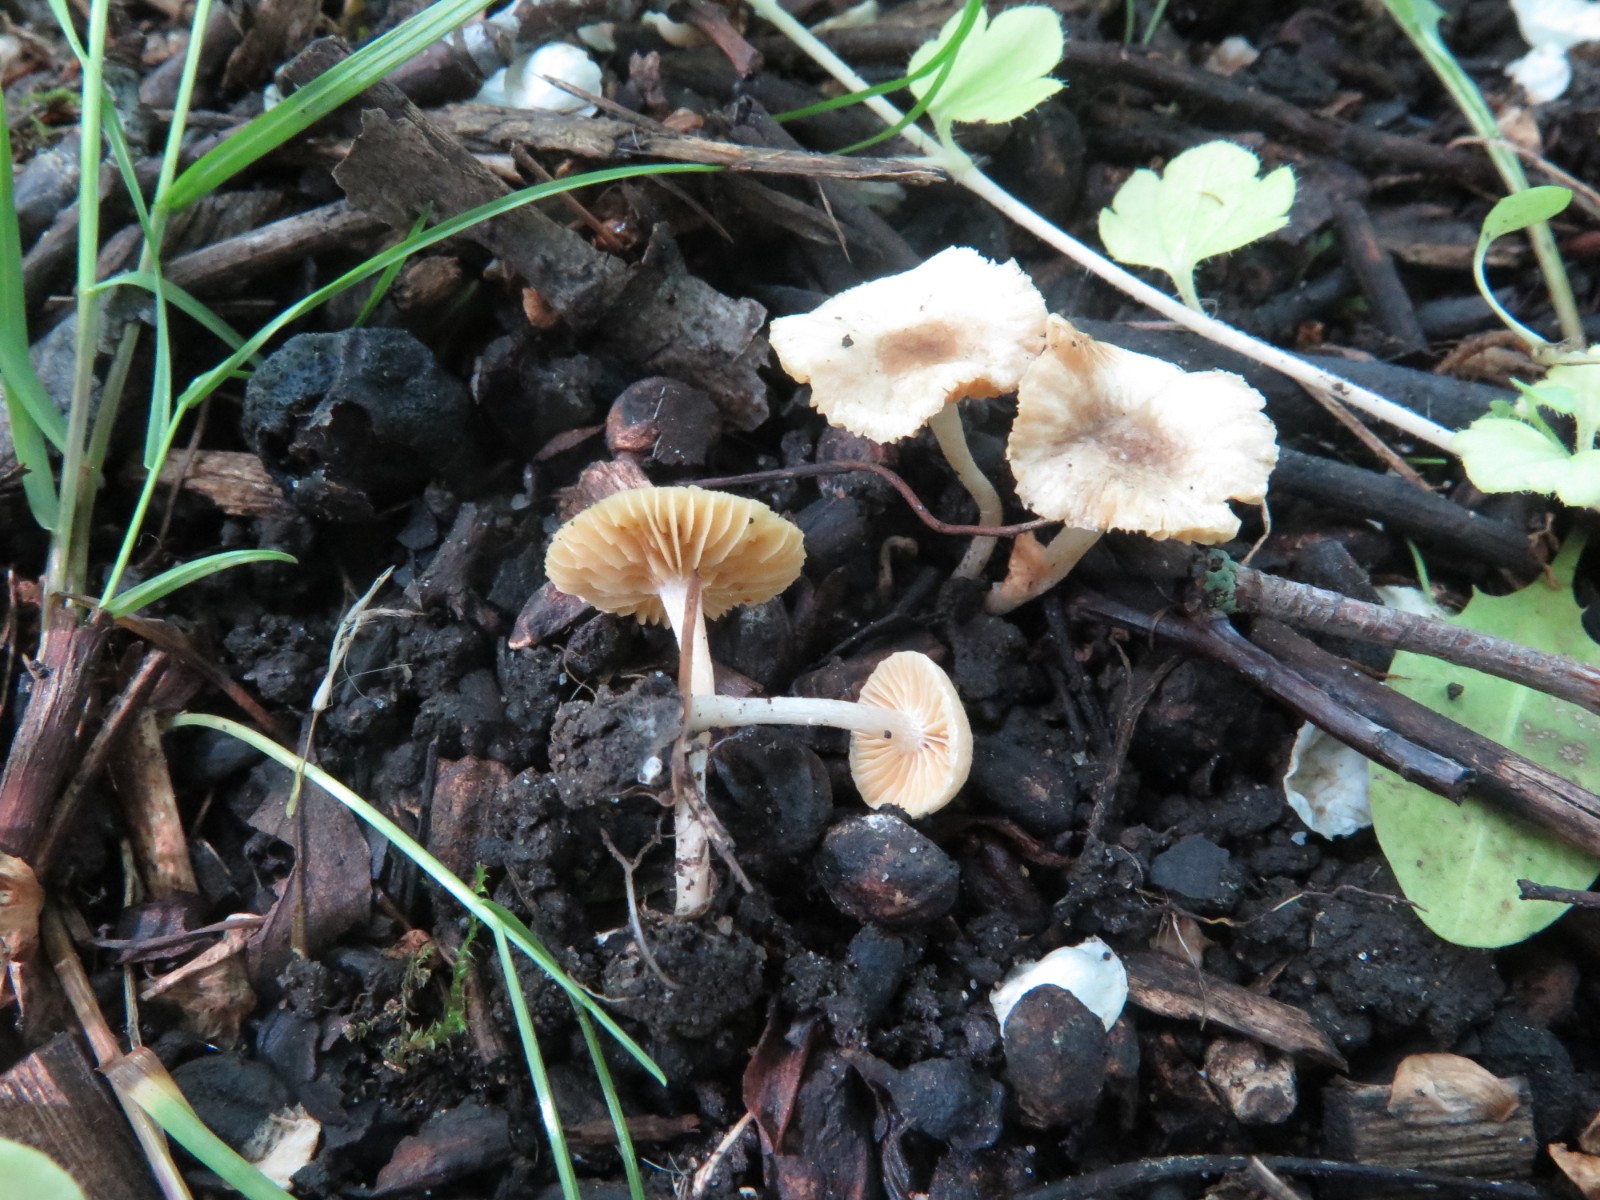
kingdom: Fungi
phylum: Basidiomycota
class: Agaricomycetes
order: Agaricales
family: Tubariaceae
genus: Tubaria
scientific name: Tubaria dispersa
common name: tjørne-fnughat
